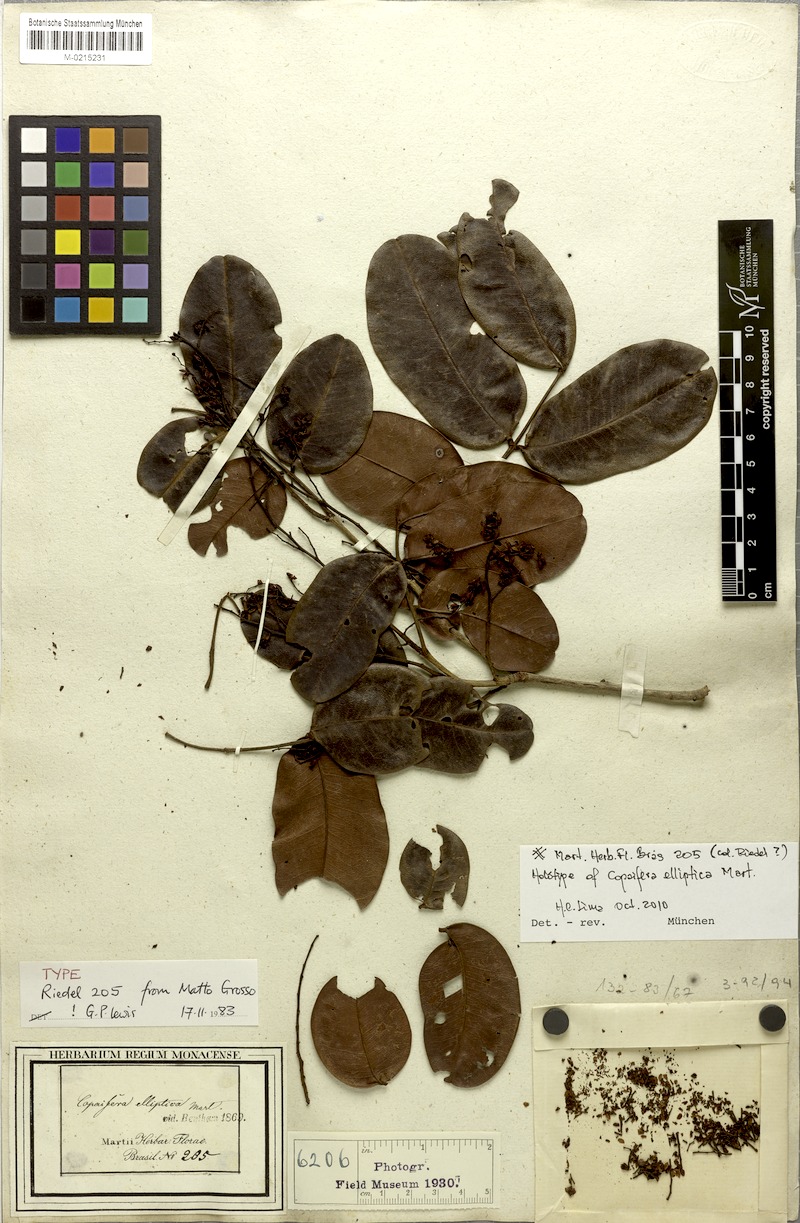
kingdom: Plantae
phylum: Tracheophyta
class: Magnoliopsida
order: Fabales
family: Fabaceae
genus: Copaifera
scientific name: Copaifera elliptica
